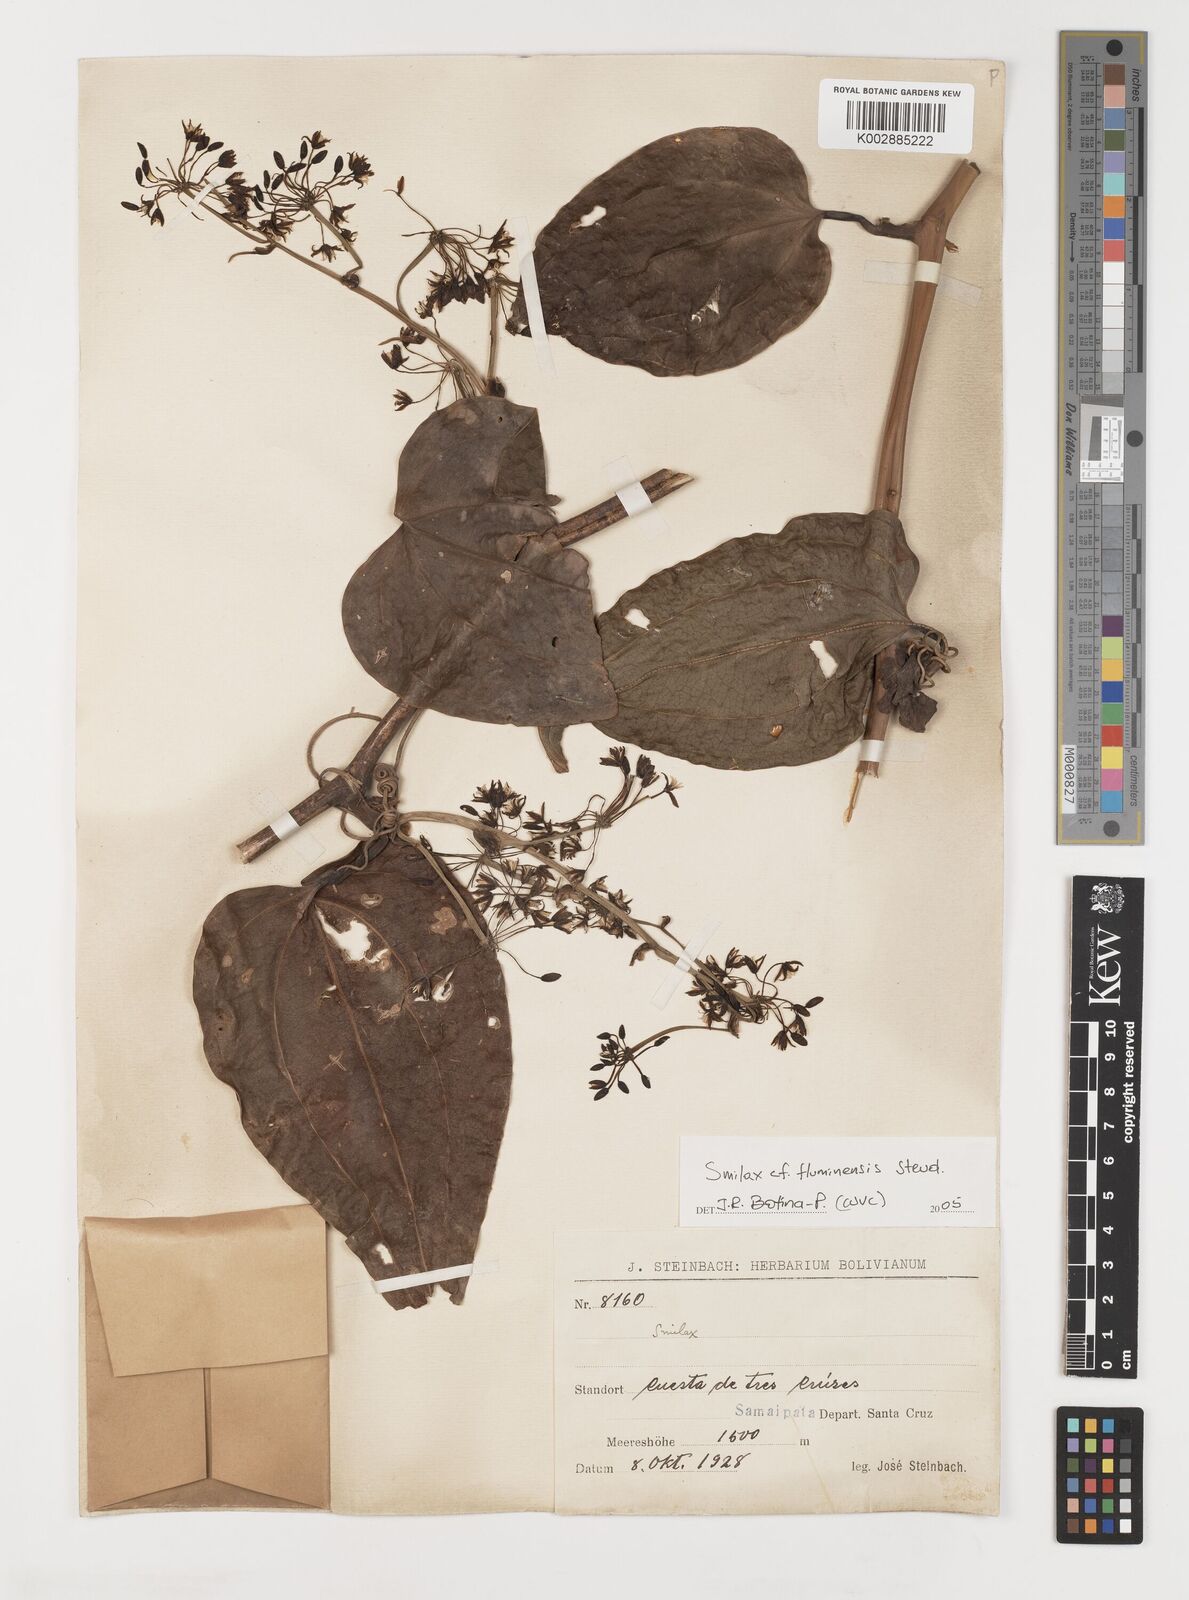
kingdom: Plantae
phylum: Tracheophyta
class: Liliopsida
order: Liliales
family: Smilacaceae
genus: Smilax
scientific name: Smilax fluminensis
